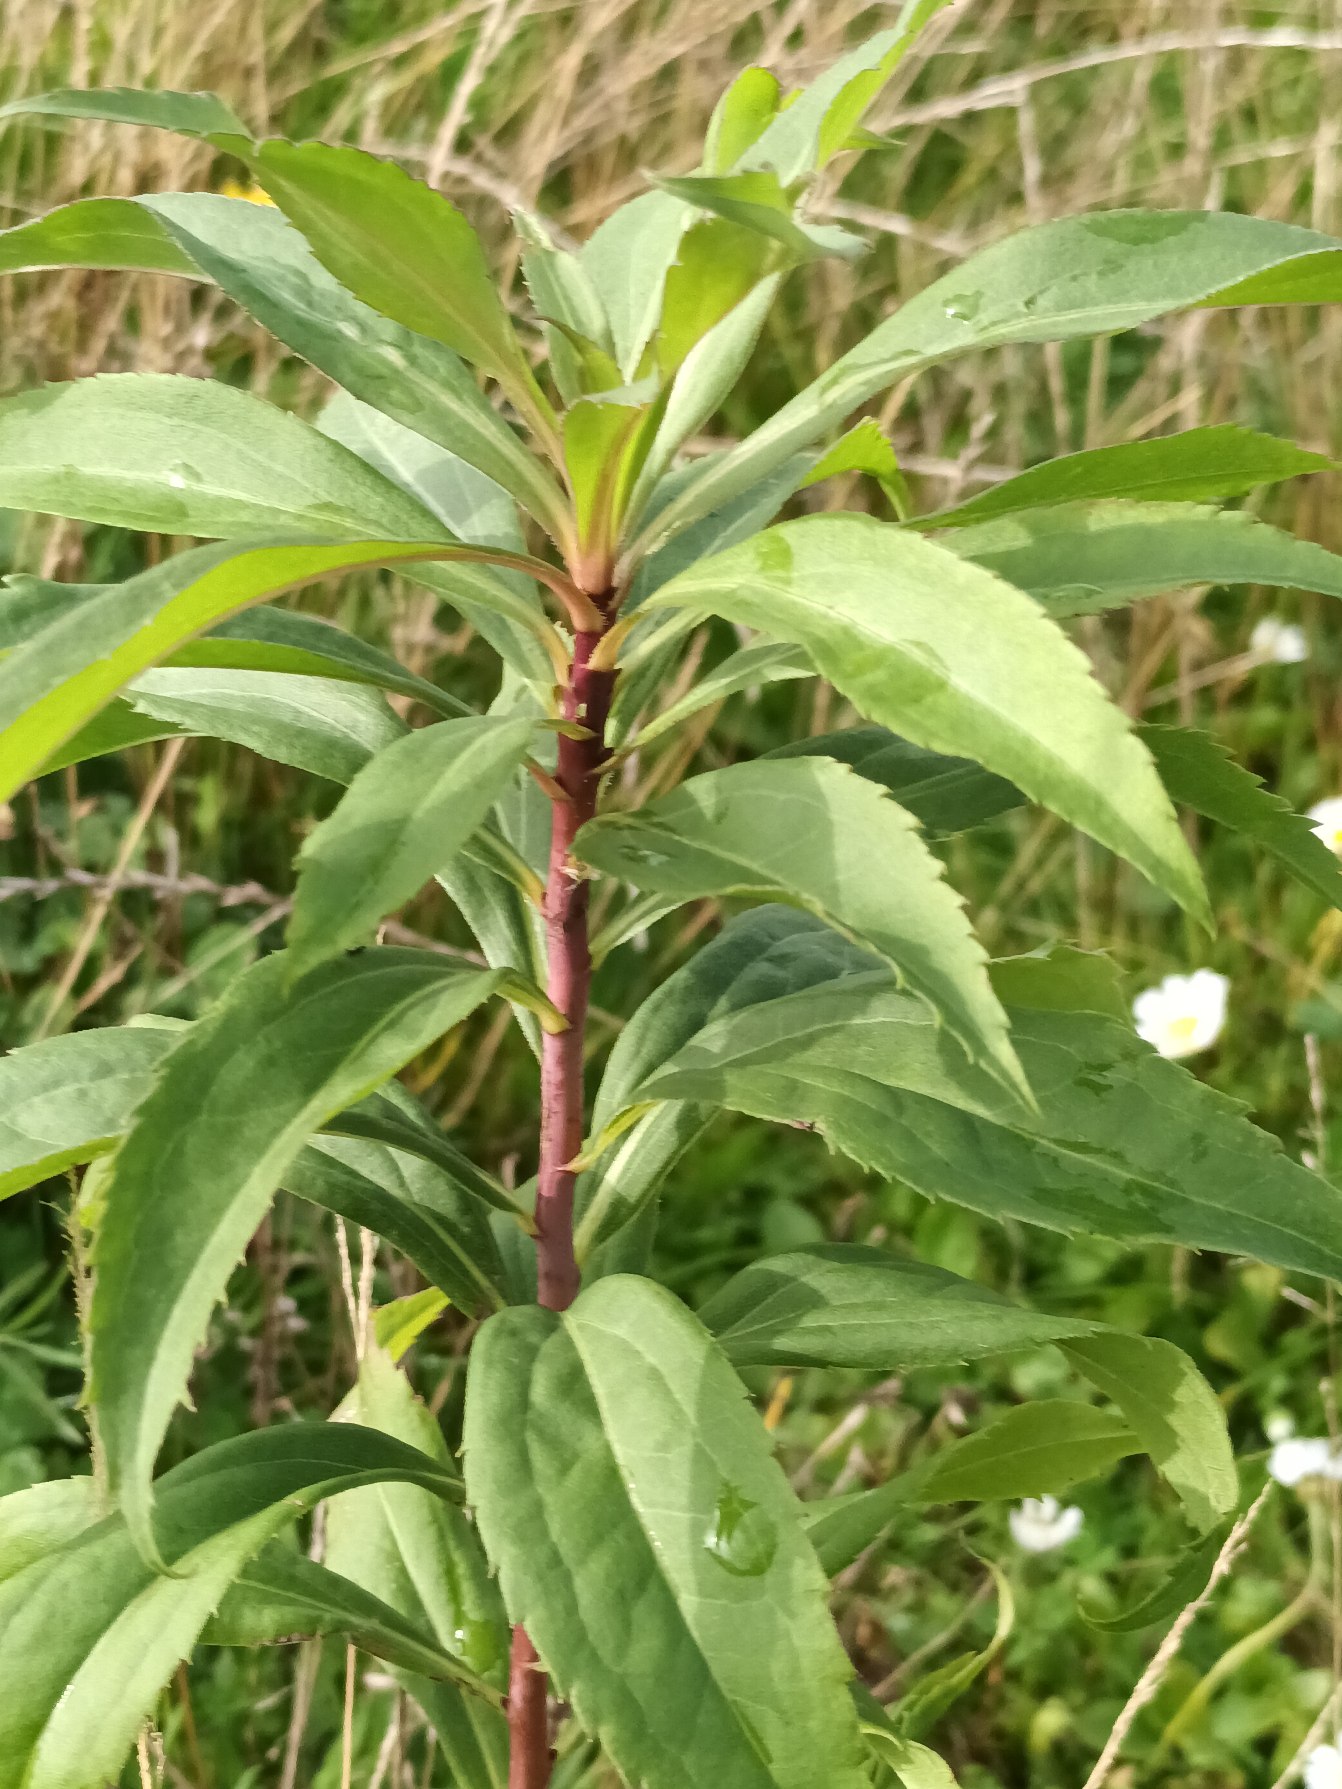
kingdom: Plantae
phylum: Tracheophyta
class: Magnoliopsida
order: Asterales
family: Asteraceae
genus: Solidago
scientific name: Solidago gigantea
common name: Sildig gyldenris
